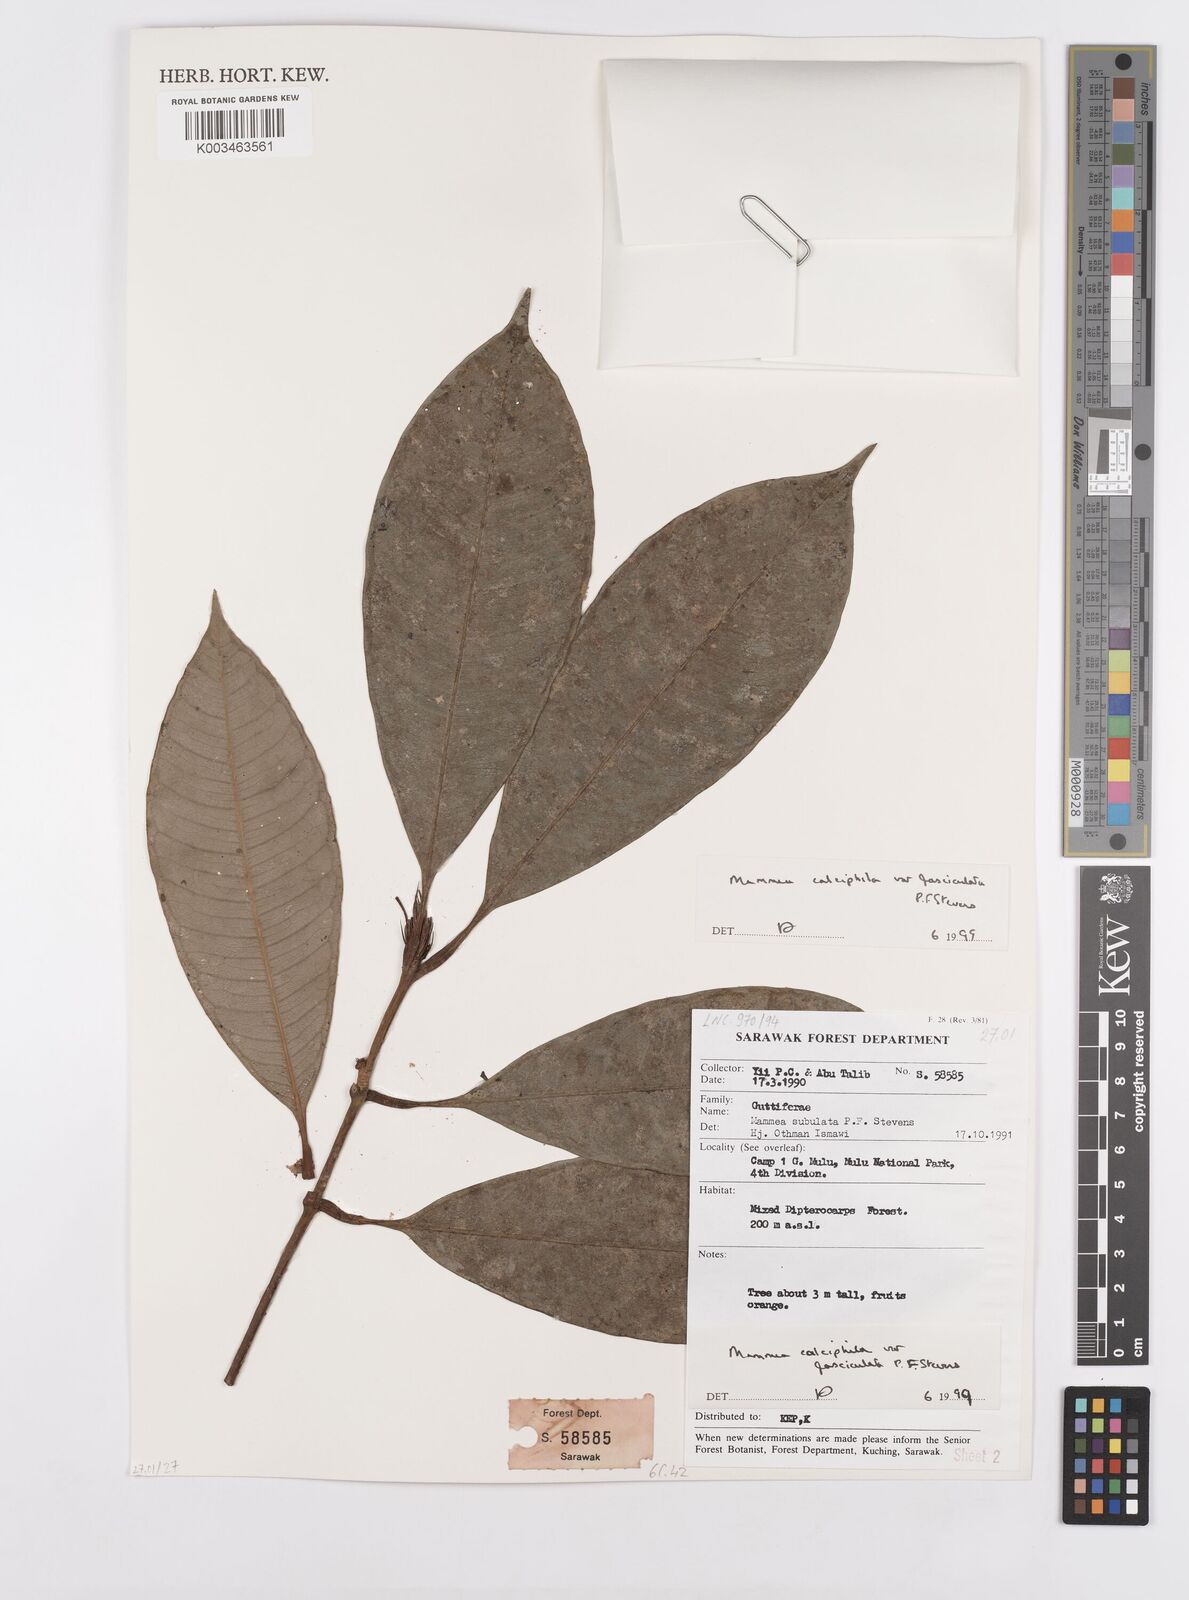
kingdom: Plantae
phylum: Tracheophyta
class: Magnoliopsida
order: Malpighiales
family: Calophyllaceae
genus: Mammea
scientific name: Mammea calciphila
